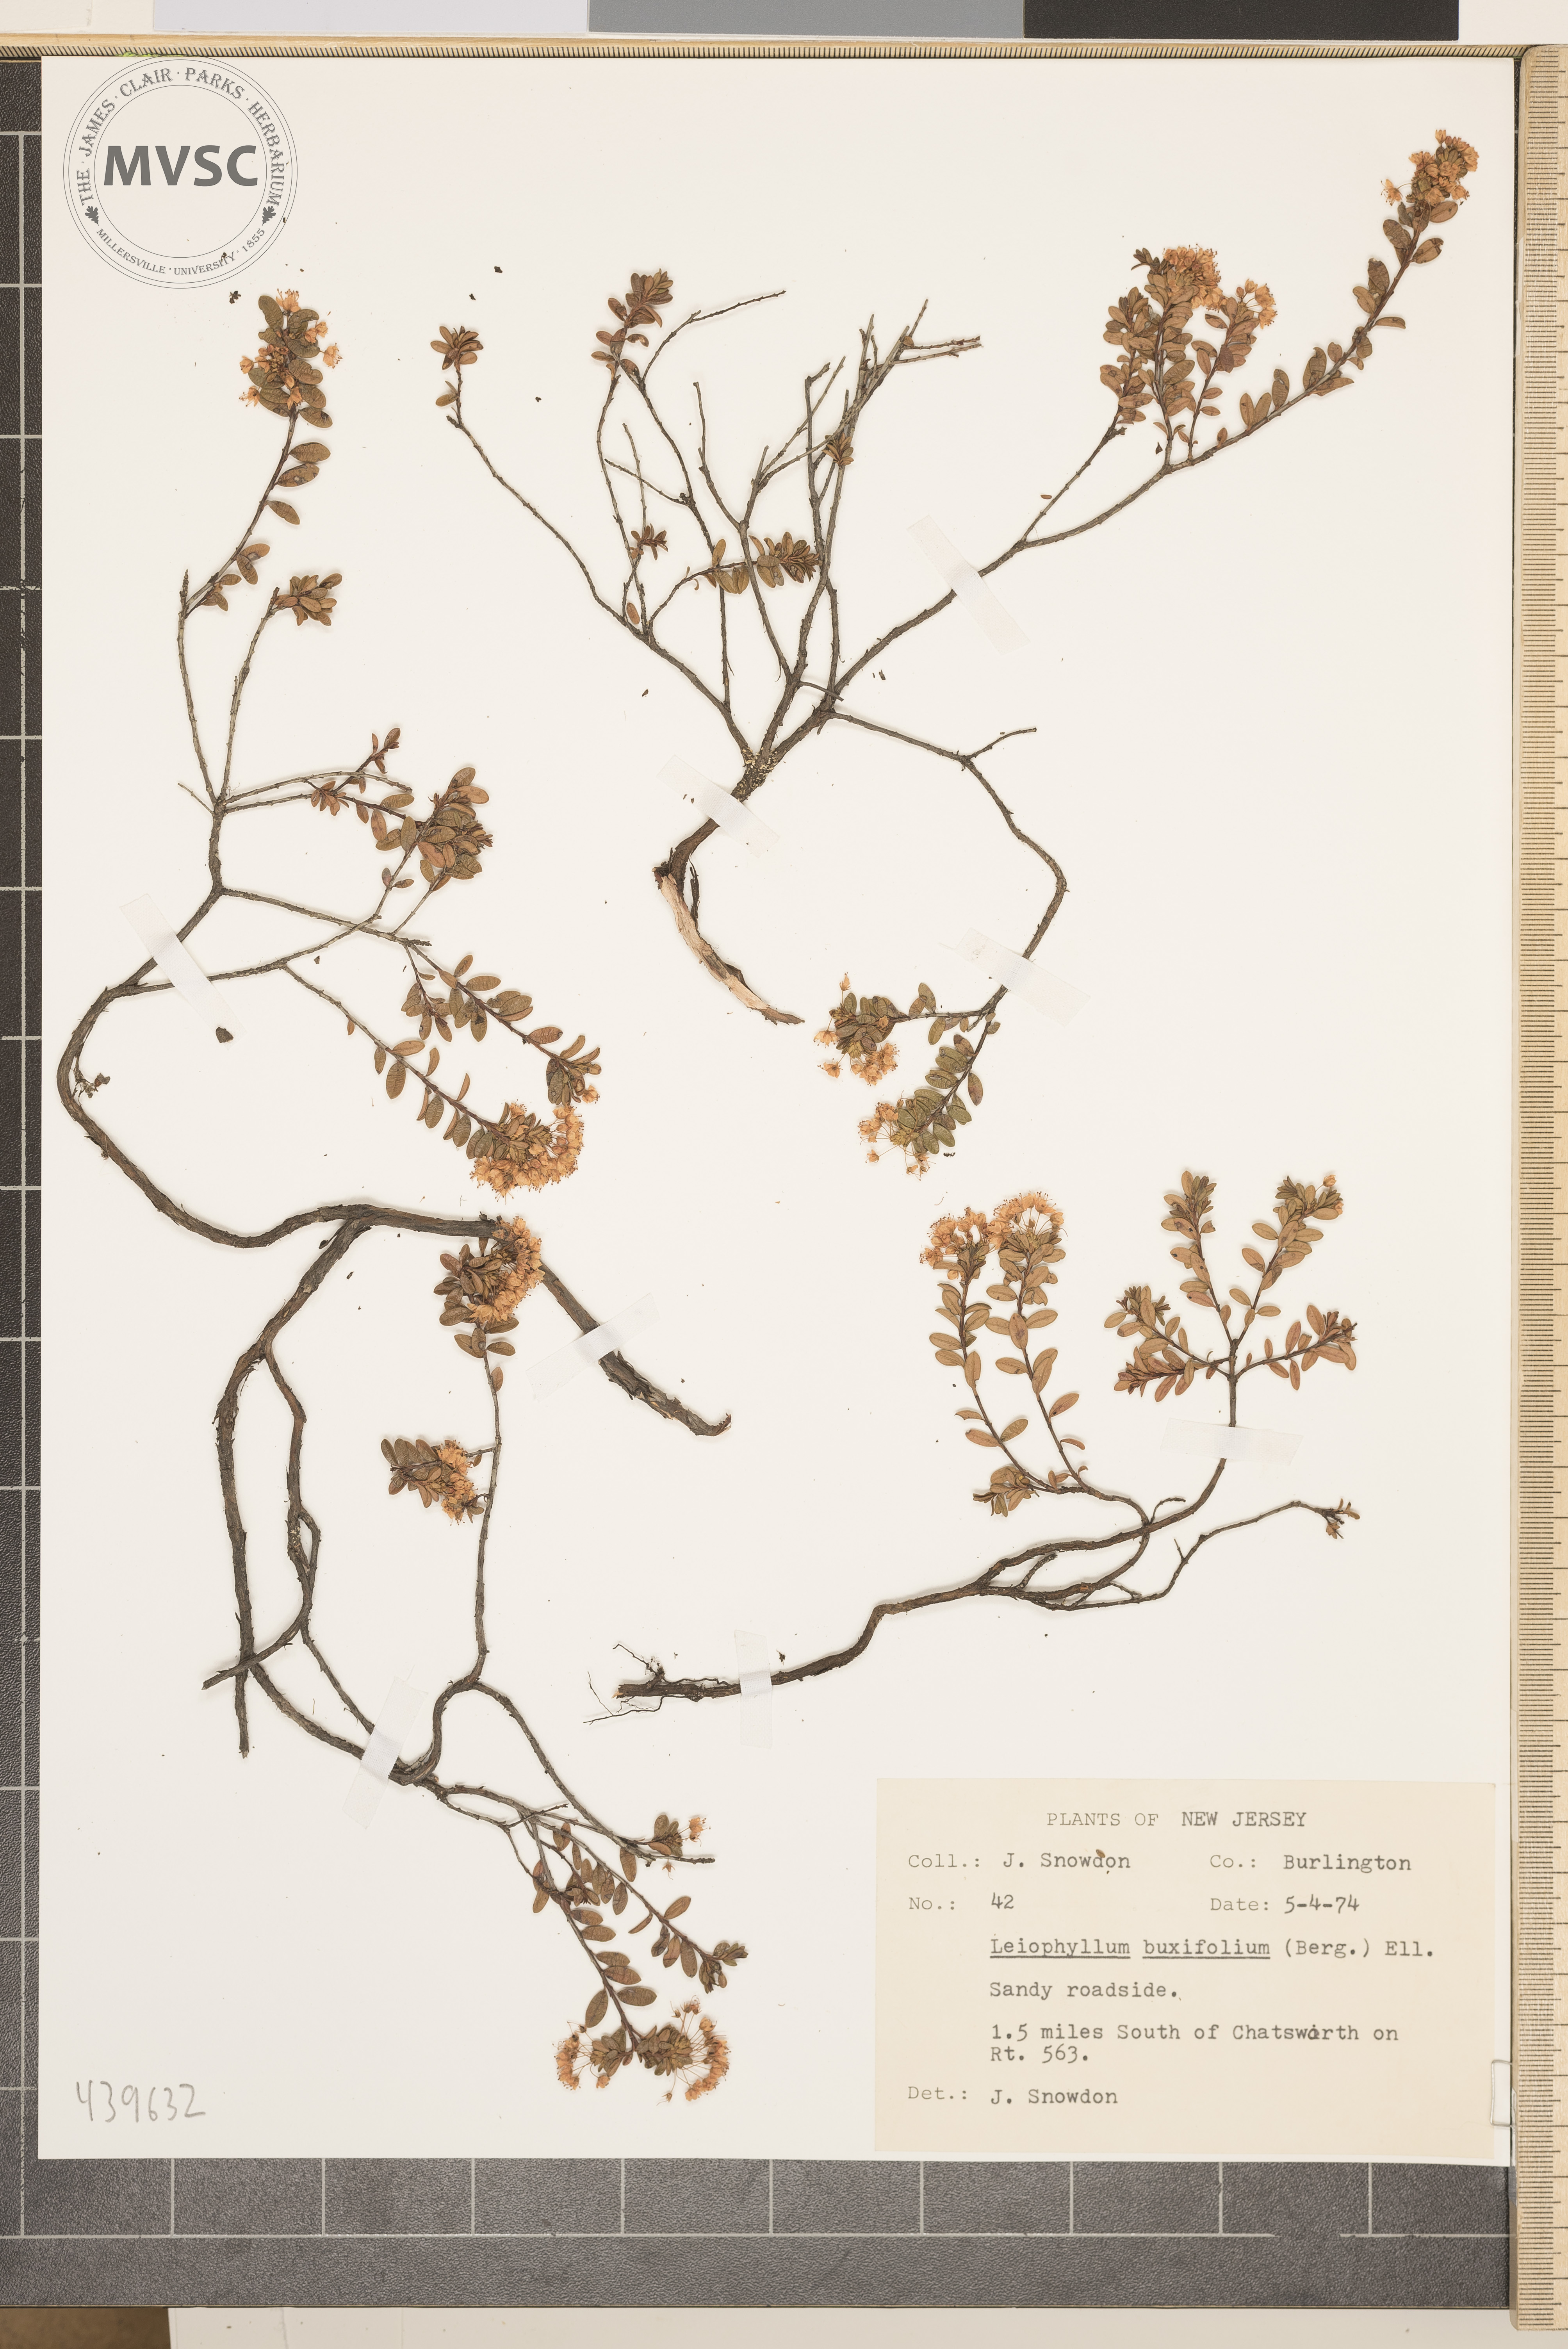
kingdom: Plantae
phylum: Tracheophyta
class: Magnoliopsida
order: Ericales
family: Ericaceae
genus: Kalmia
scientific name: Kalmia buxifolia
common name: Sandmyrtle
